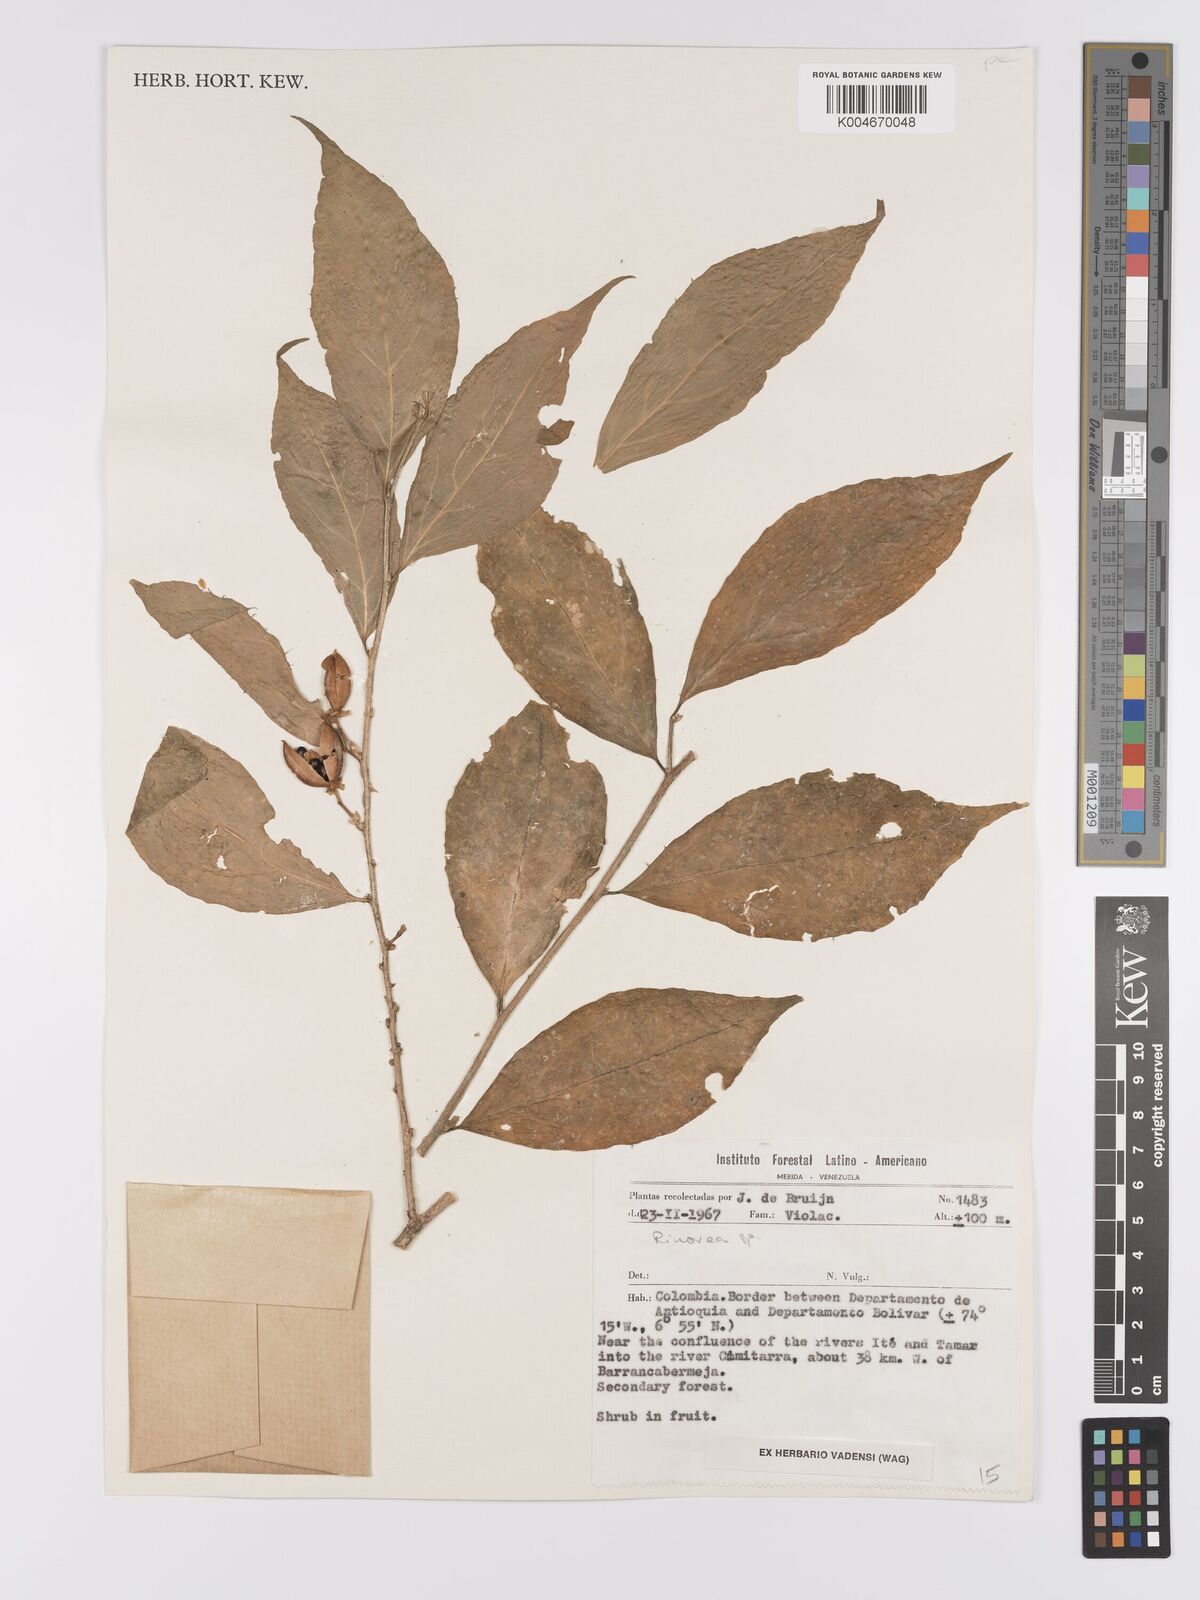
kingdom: Plantae
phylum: Tracheophyta
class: Magnoliopsida
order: Malpighiales
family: Violaceae
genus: Rinorea
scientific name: Rinorea
